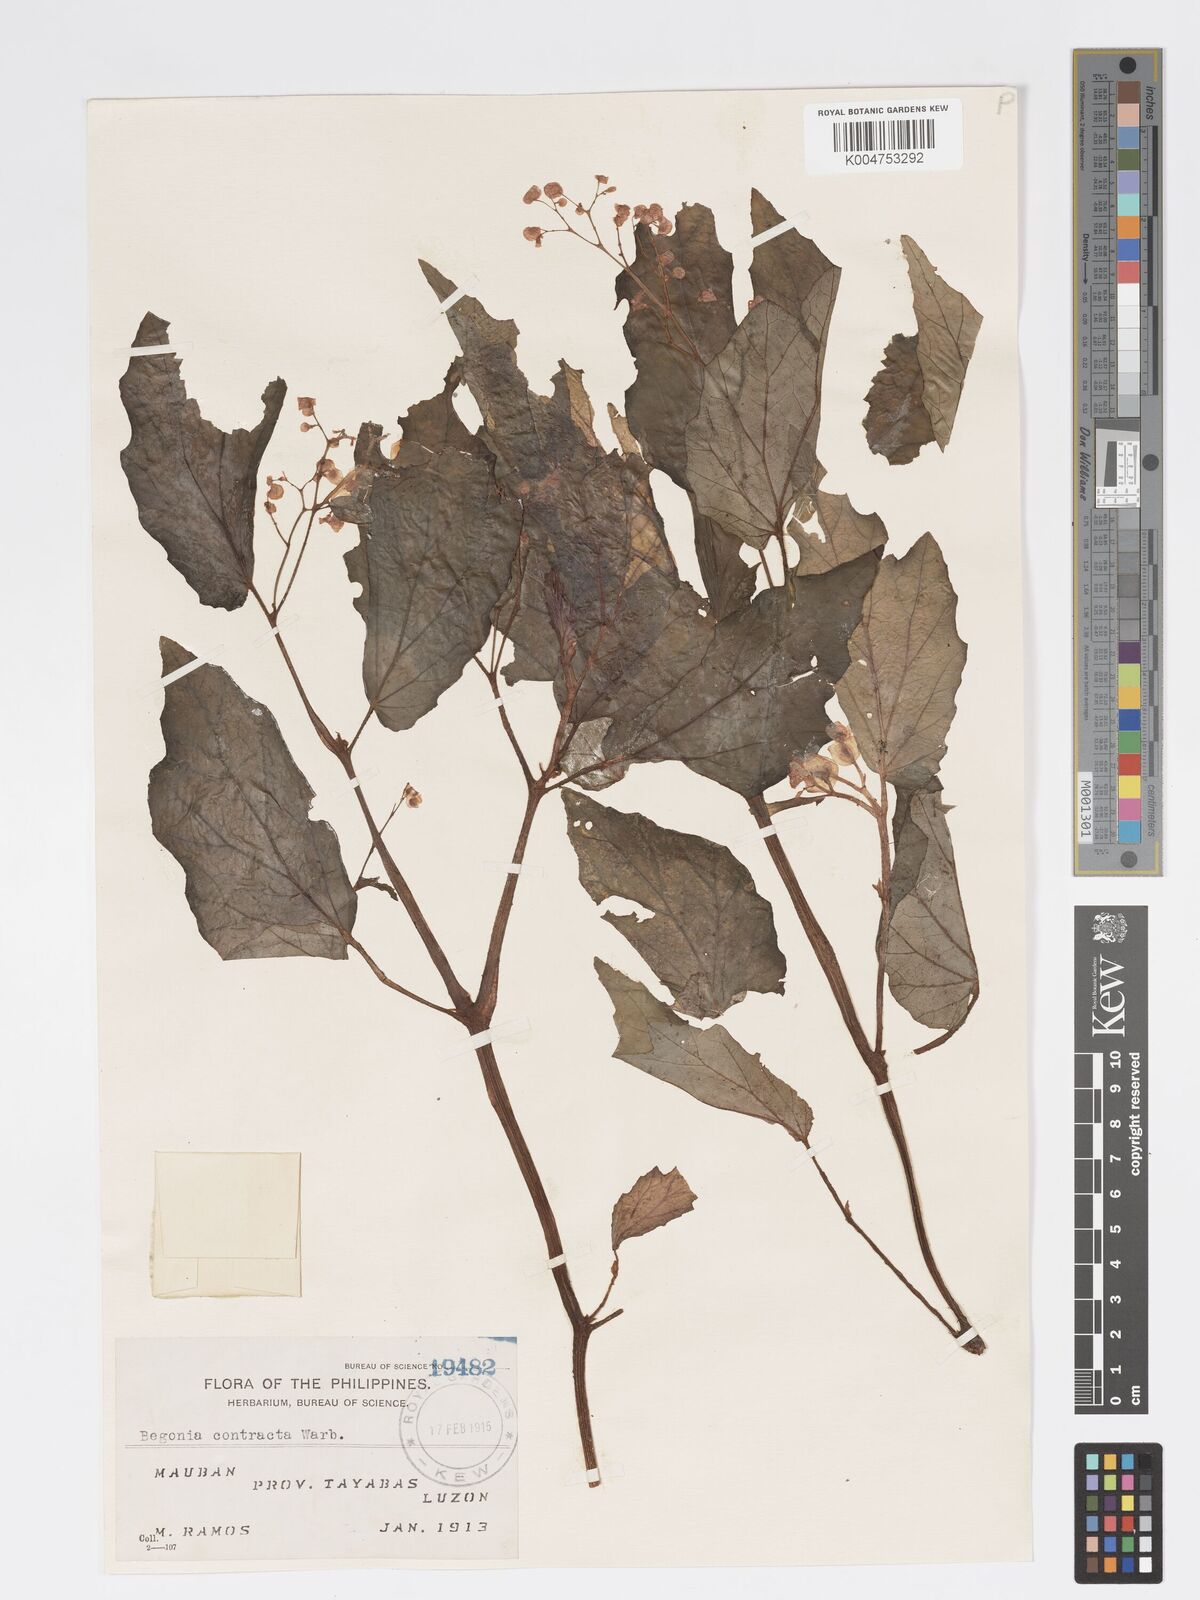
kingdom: Plantae
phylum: Tracheophyta
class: Magnoliopsida
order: Cucurbitales
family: Begoniaceae
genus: Begonia
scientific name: Begonia contracta
